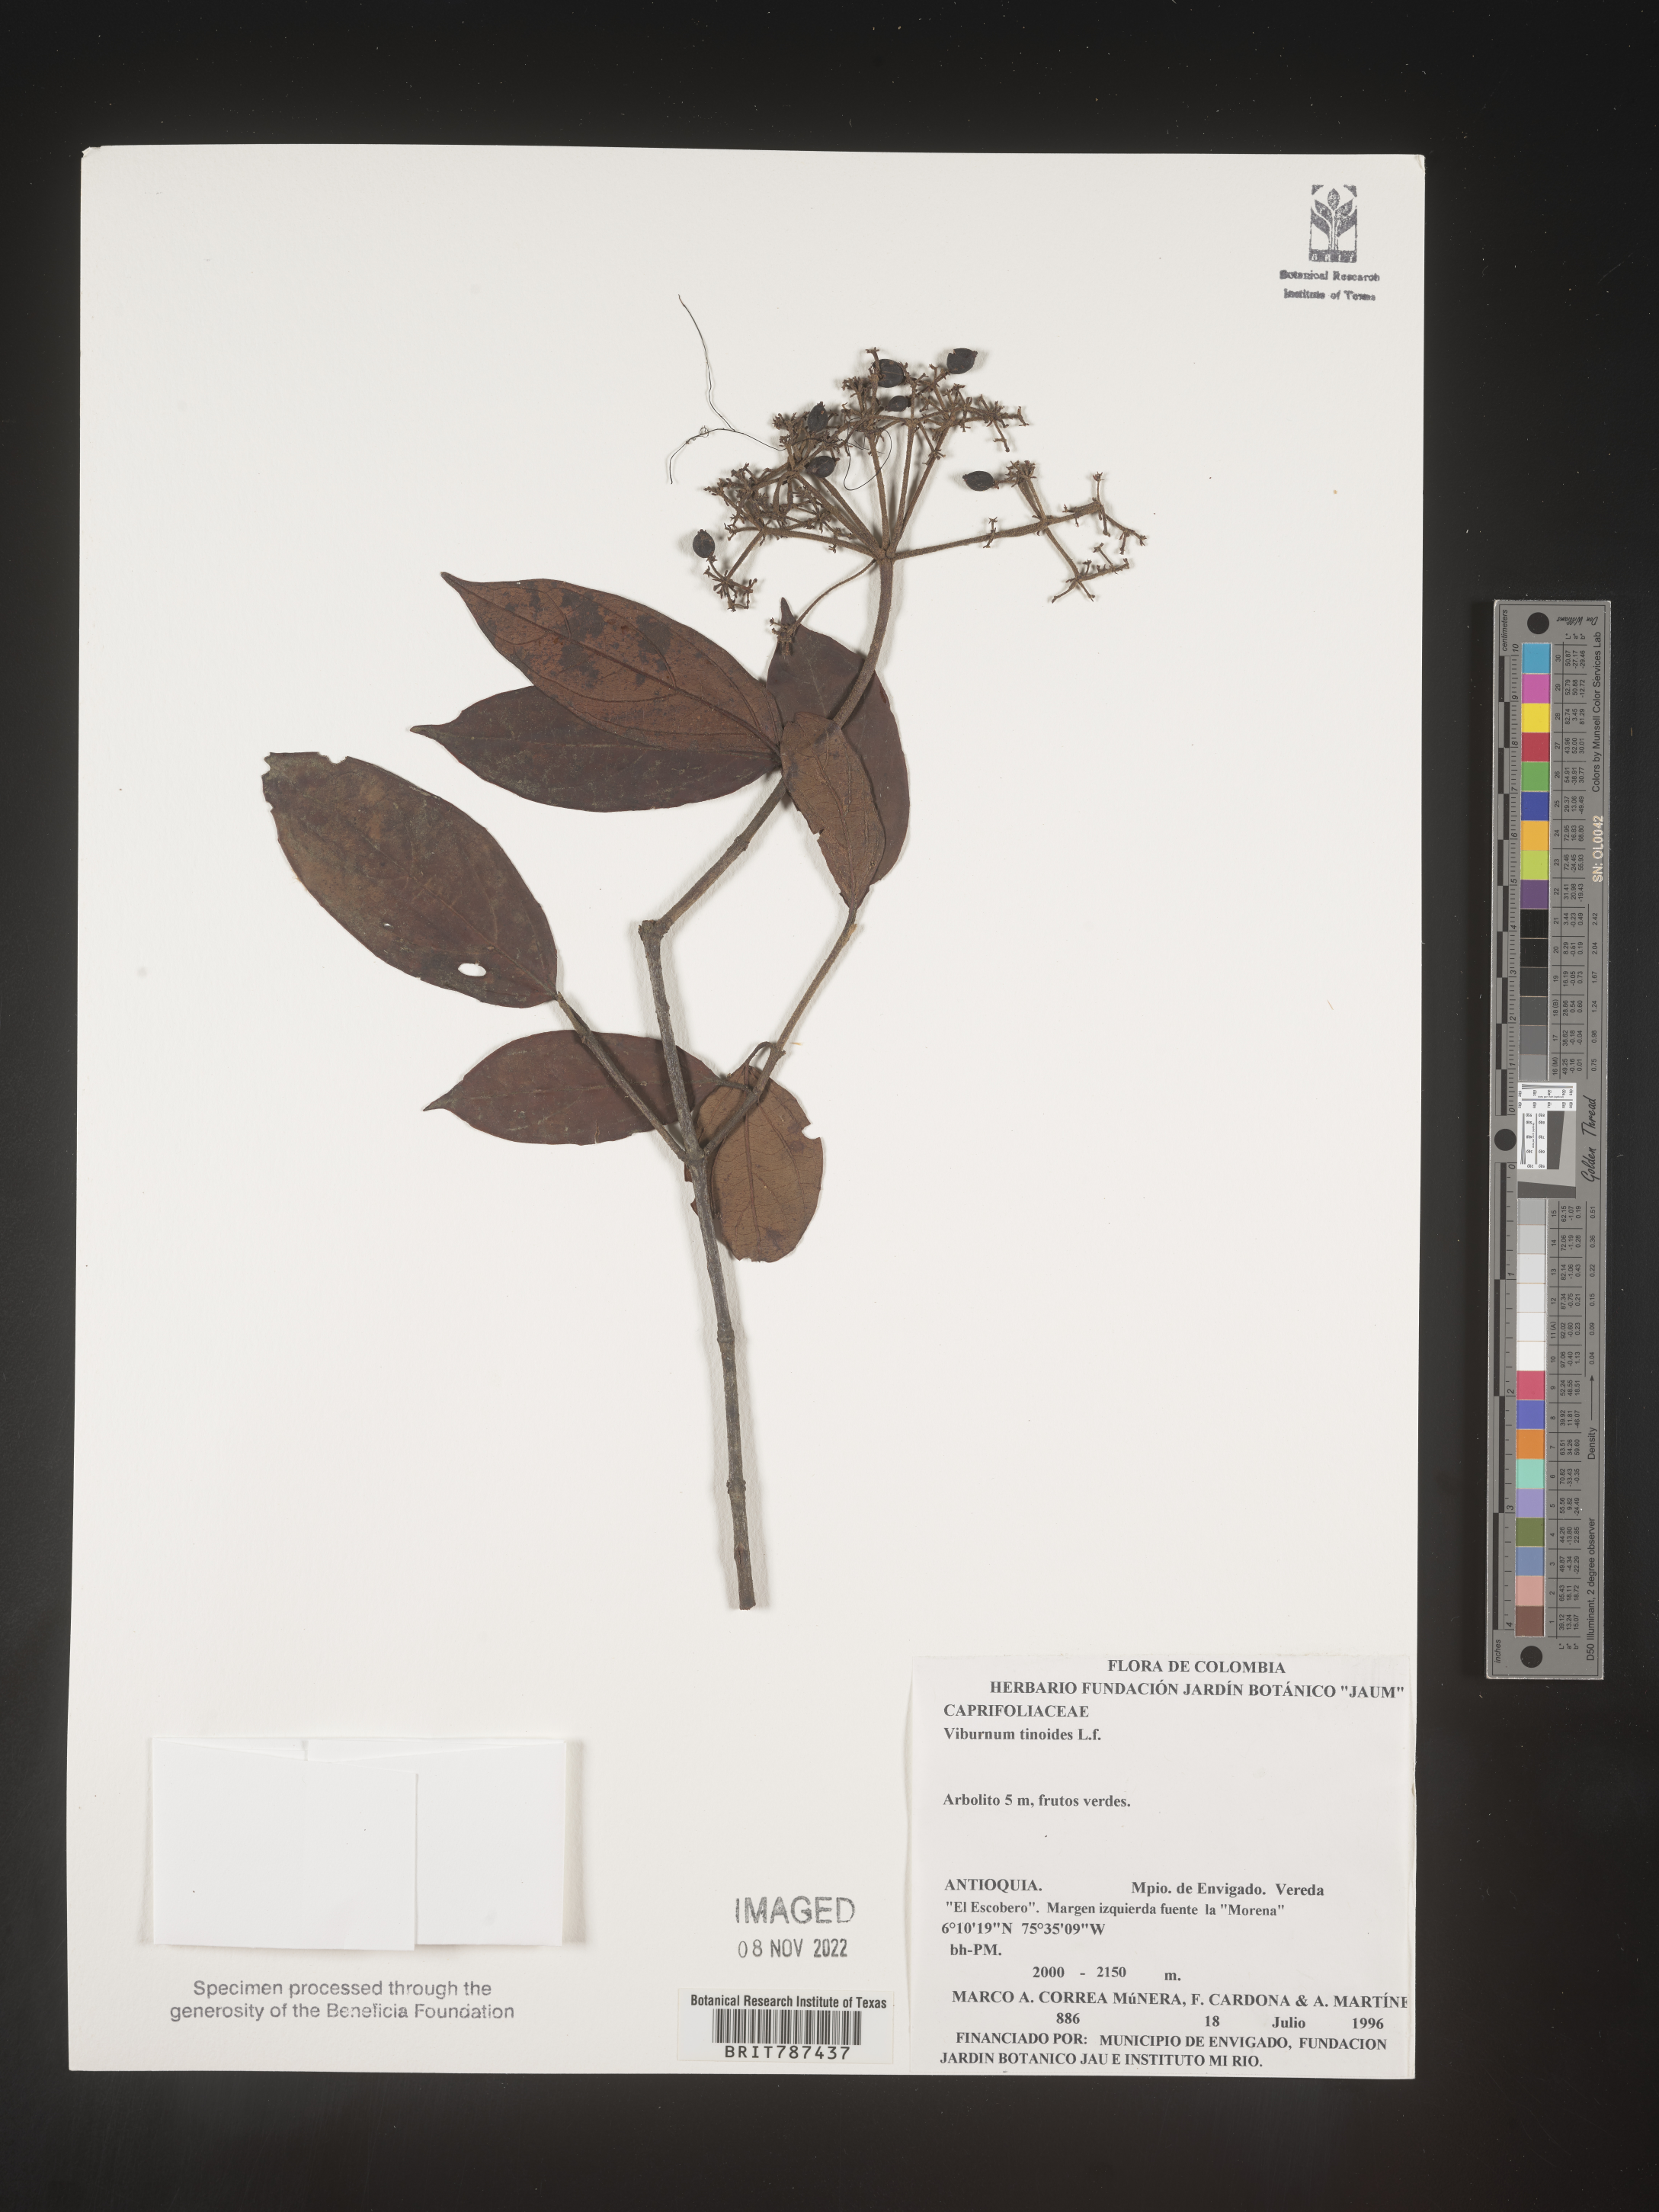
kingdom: Plantae
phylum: Tracheophyta
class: Magnoliopsida
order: Dipsacales
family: Viburnaceae
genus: Viburnum
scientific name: Viburnum
